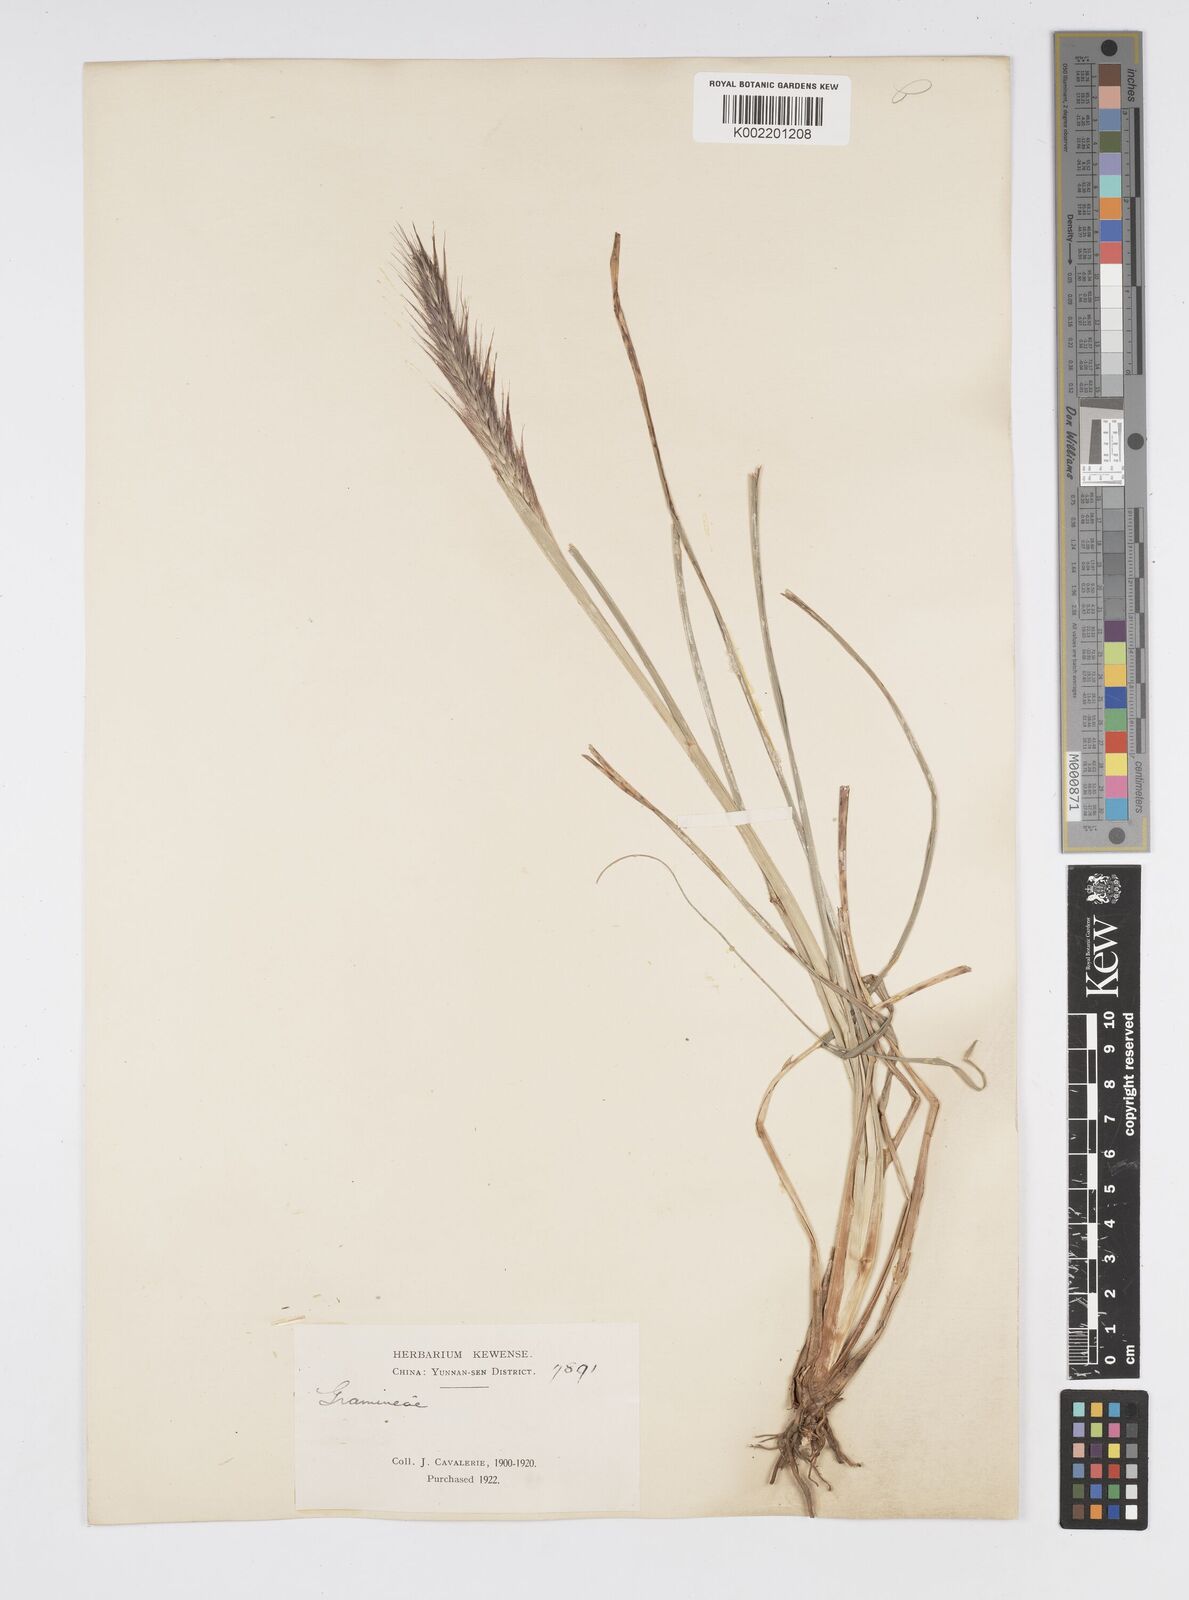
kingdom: Plantae
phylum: Tracheophyta
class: Liliopsida
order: Poales
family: Poaceae
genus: Cenchrus
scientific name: Cenchrus alopecuroides
